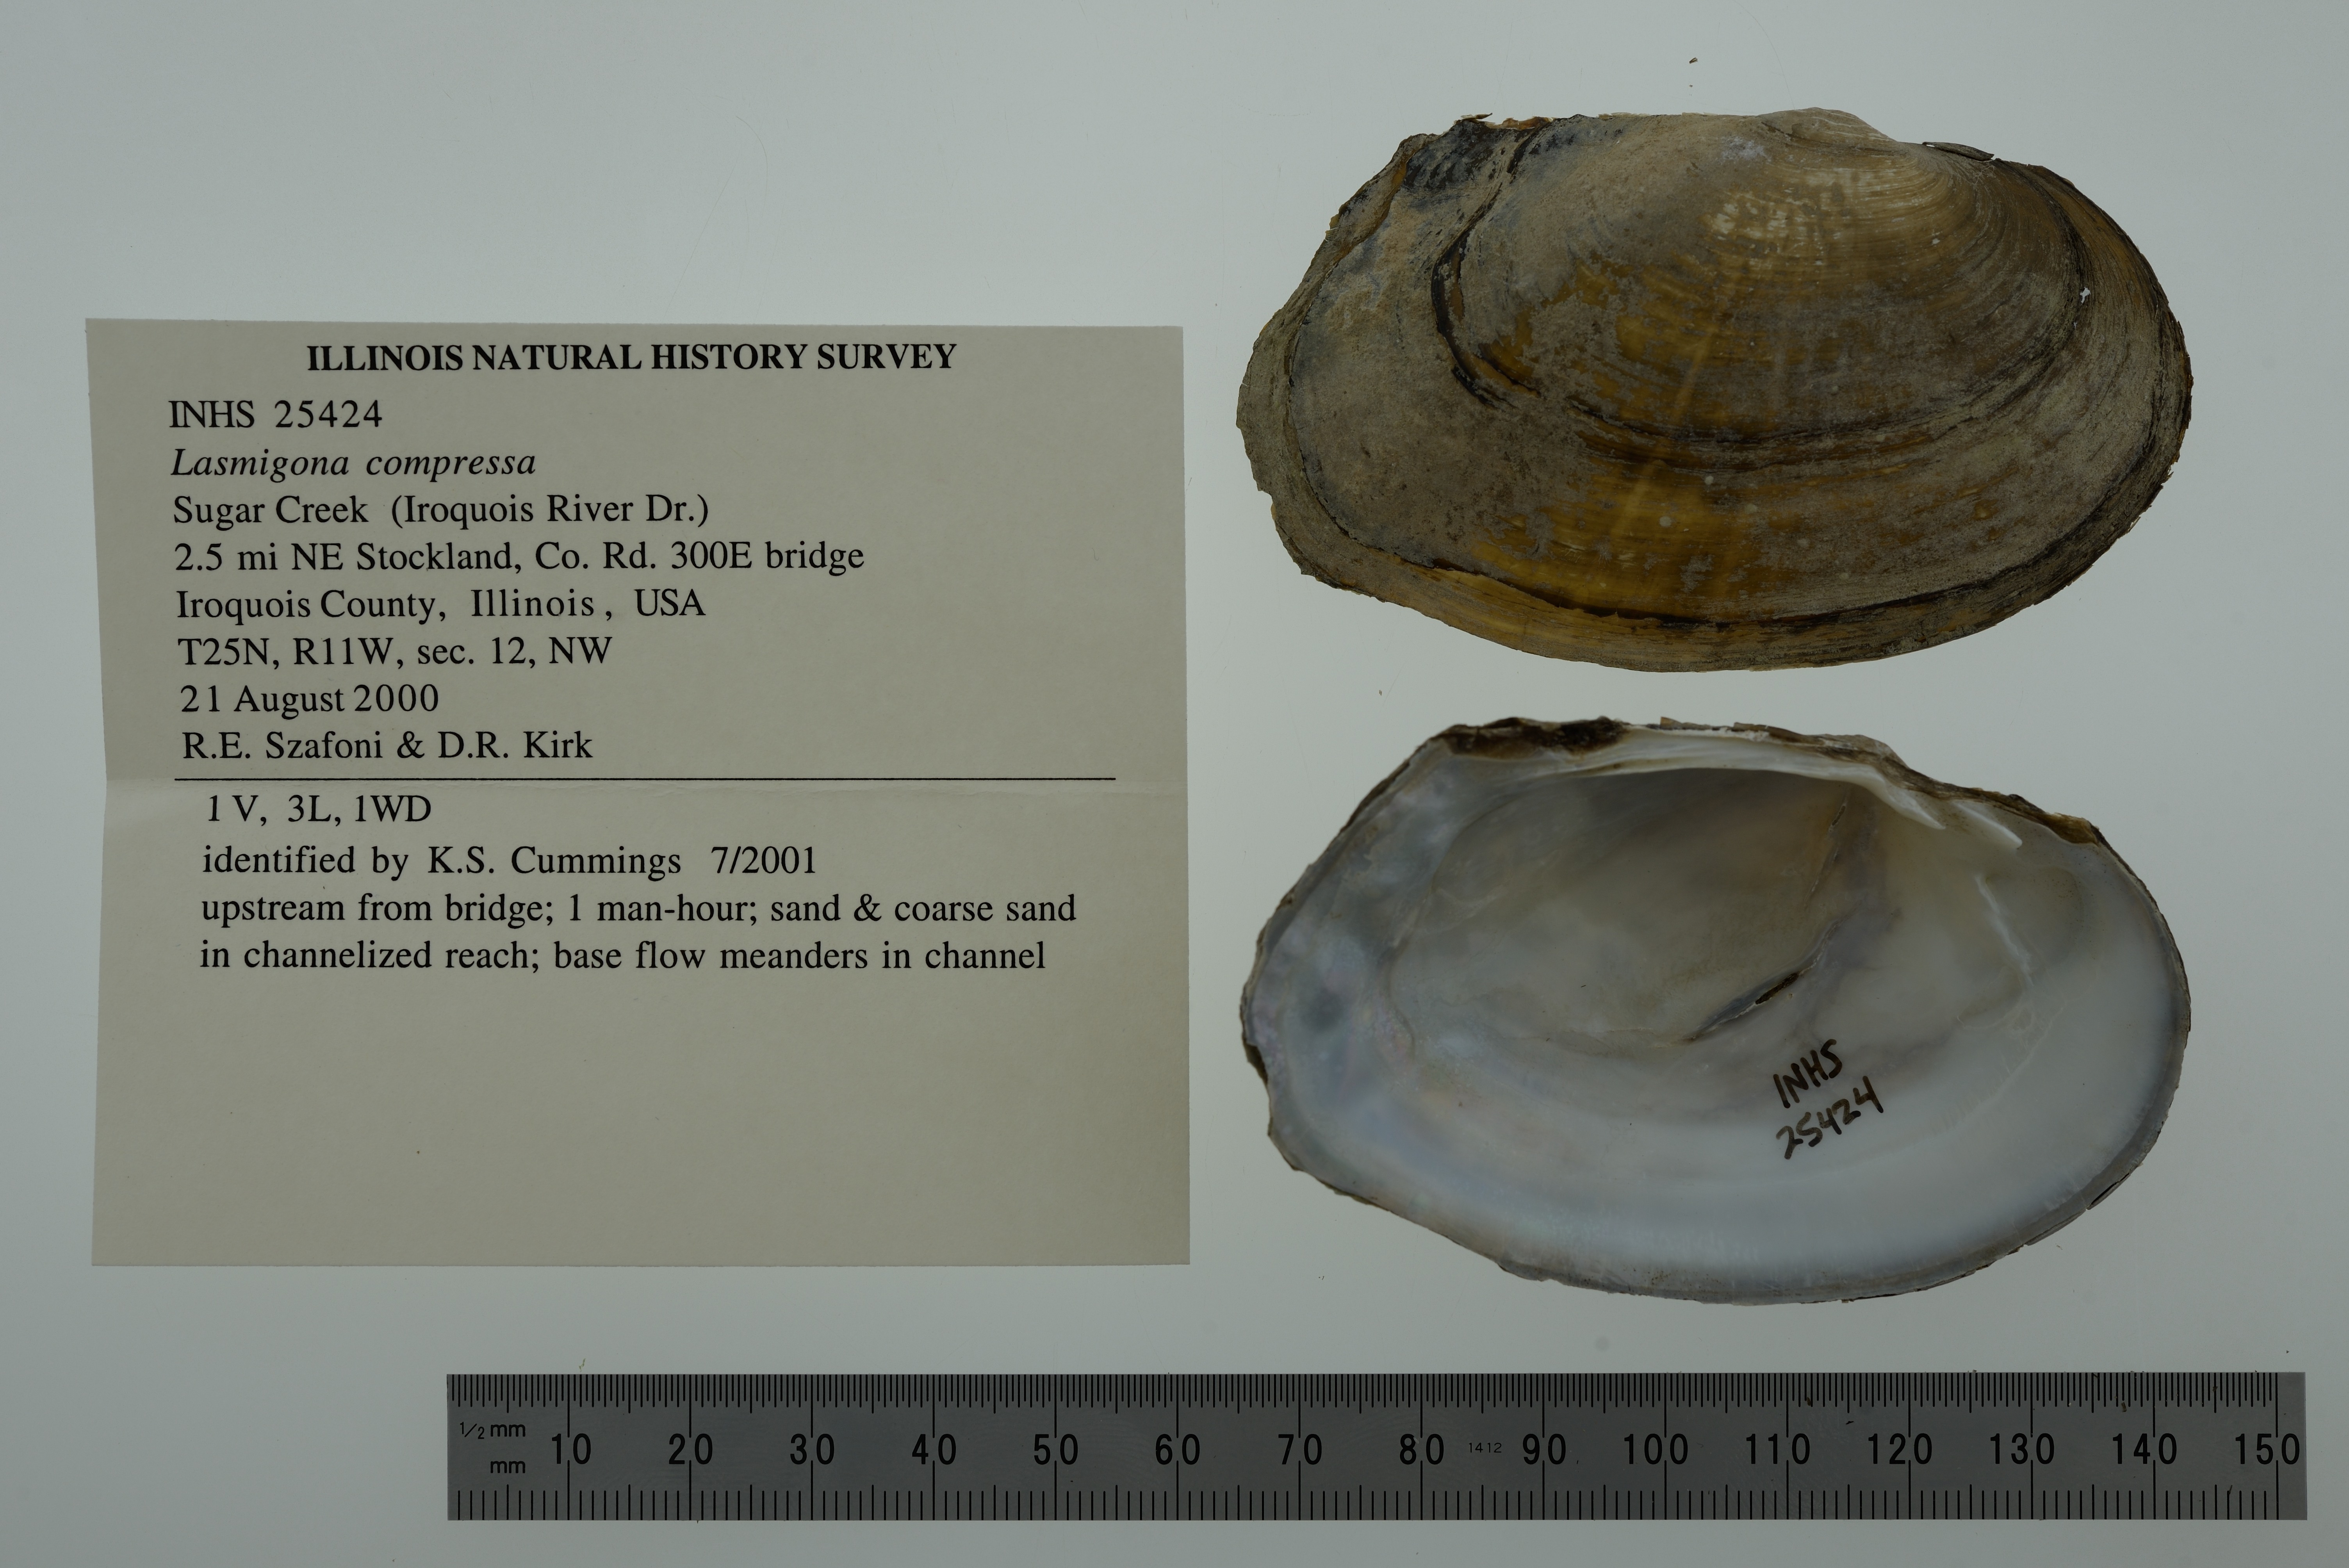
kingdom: Animalia
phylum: Mollusca
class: Bivalvia
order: Unionida
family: Unionidae
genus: Lasmigona
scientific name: Lasmigona compressa
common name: Creek heelsplitter
